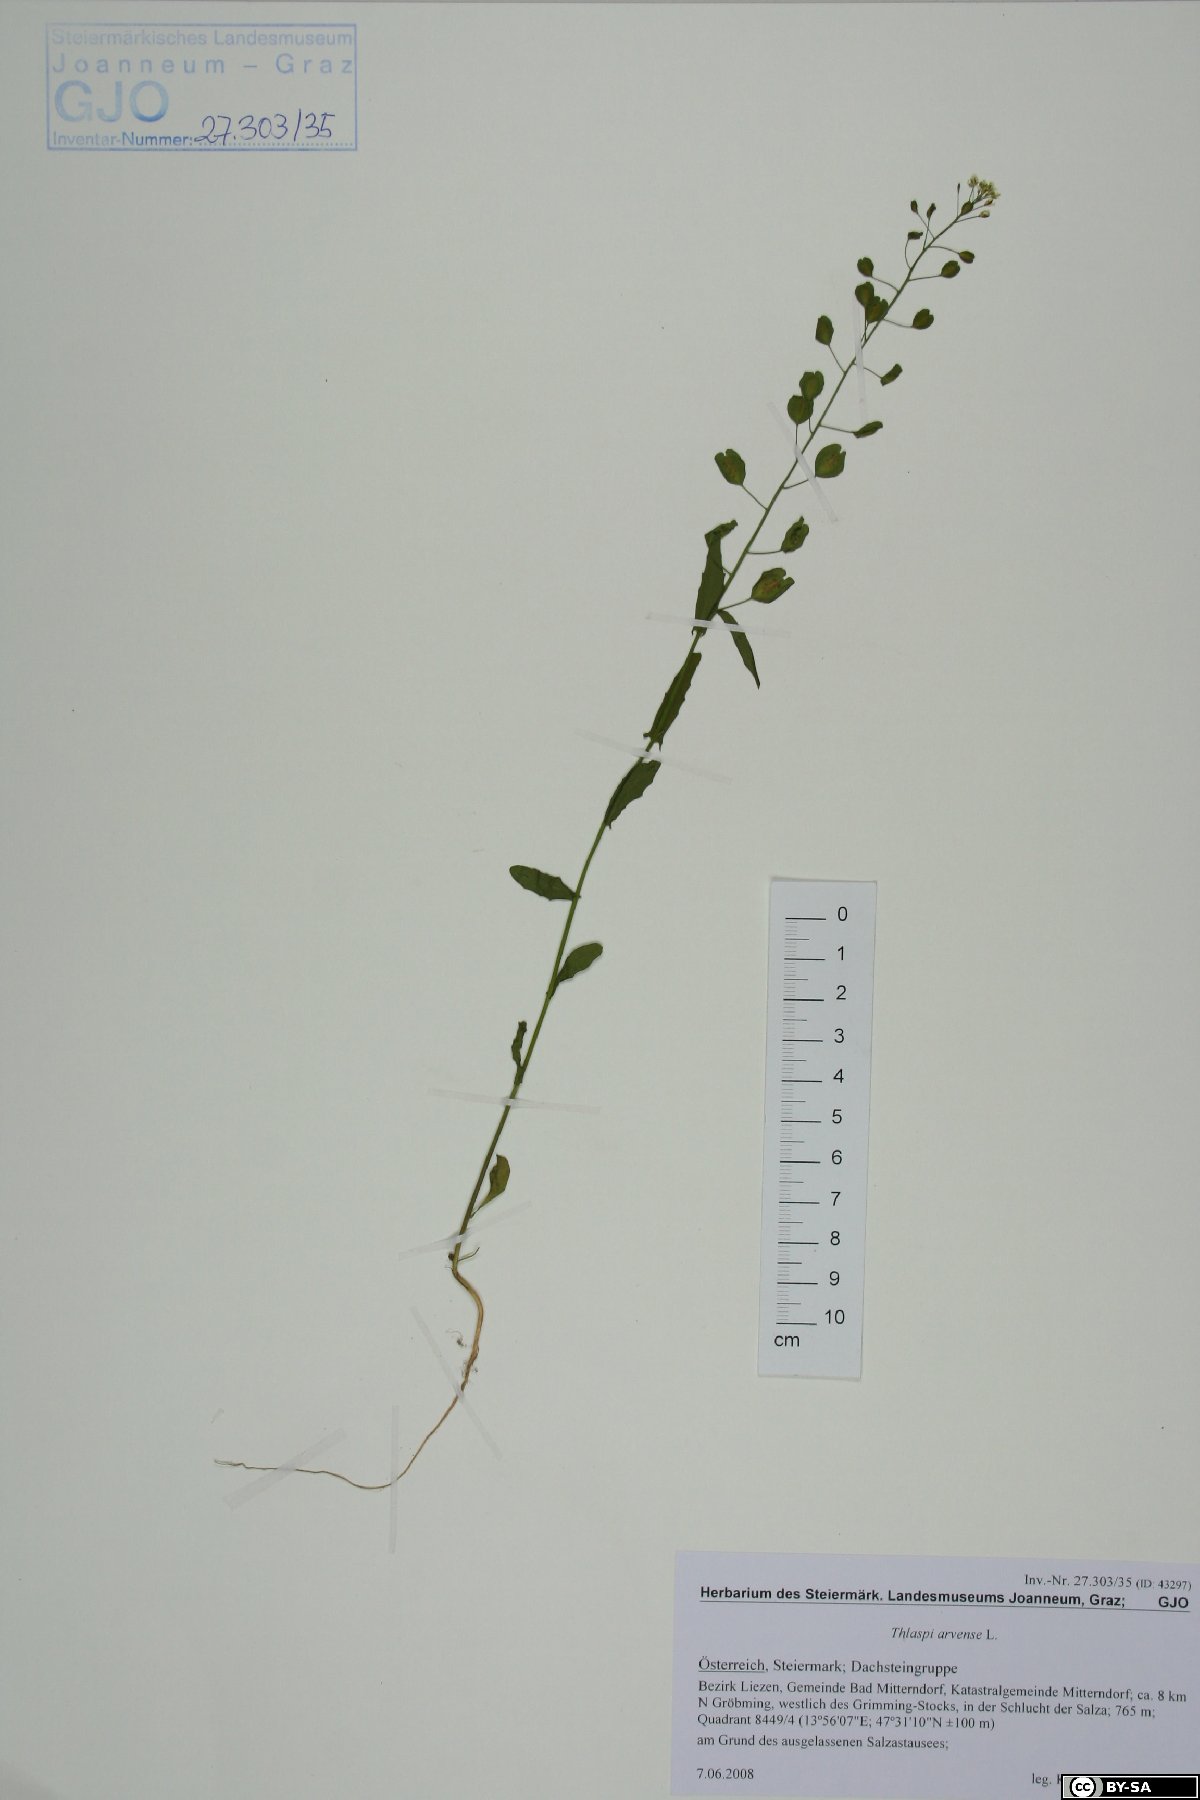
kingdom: Plantae
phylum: Tracheophyta
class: Magnoliopsida
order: Brassicales
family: Brassicaceae
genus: Thlaspi
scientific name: Thlaspi arvense
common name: Field pennycress
